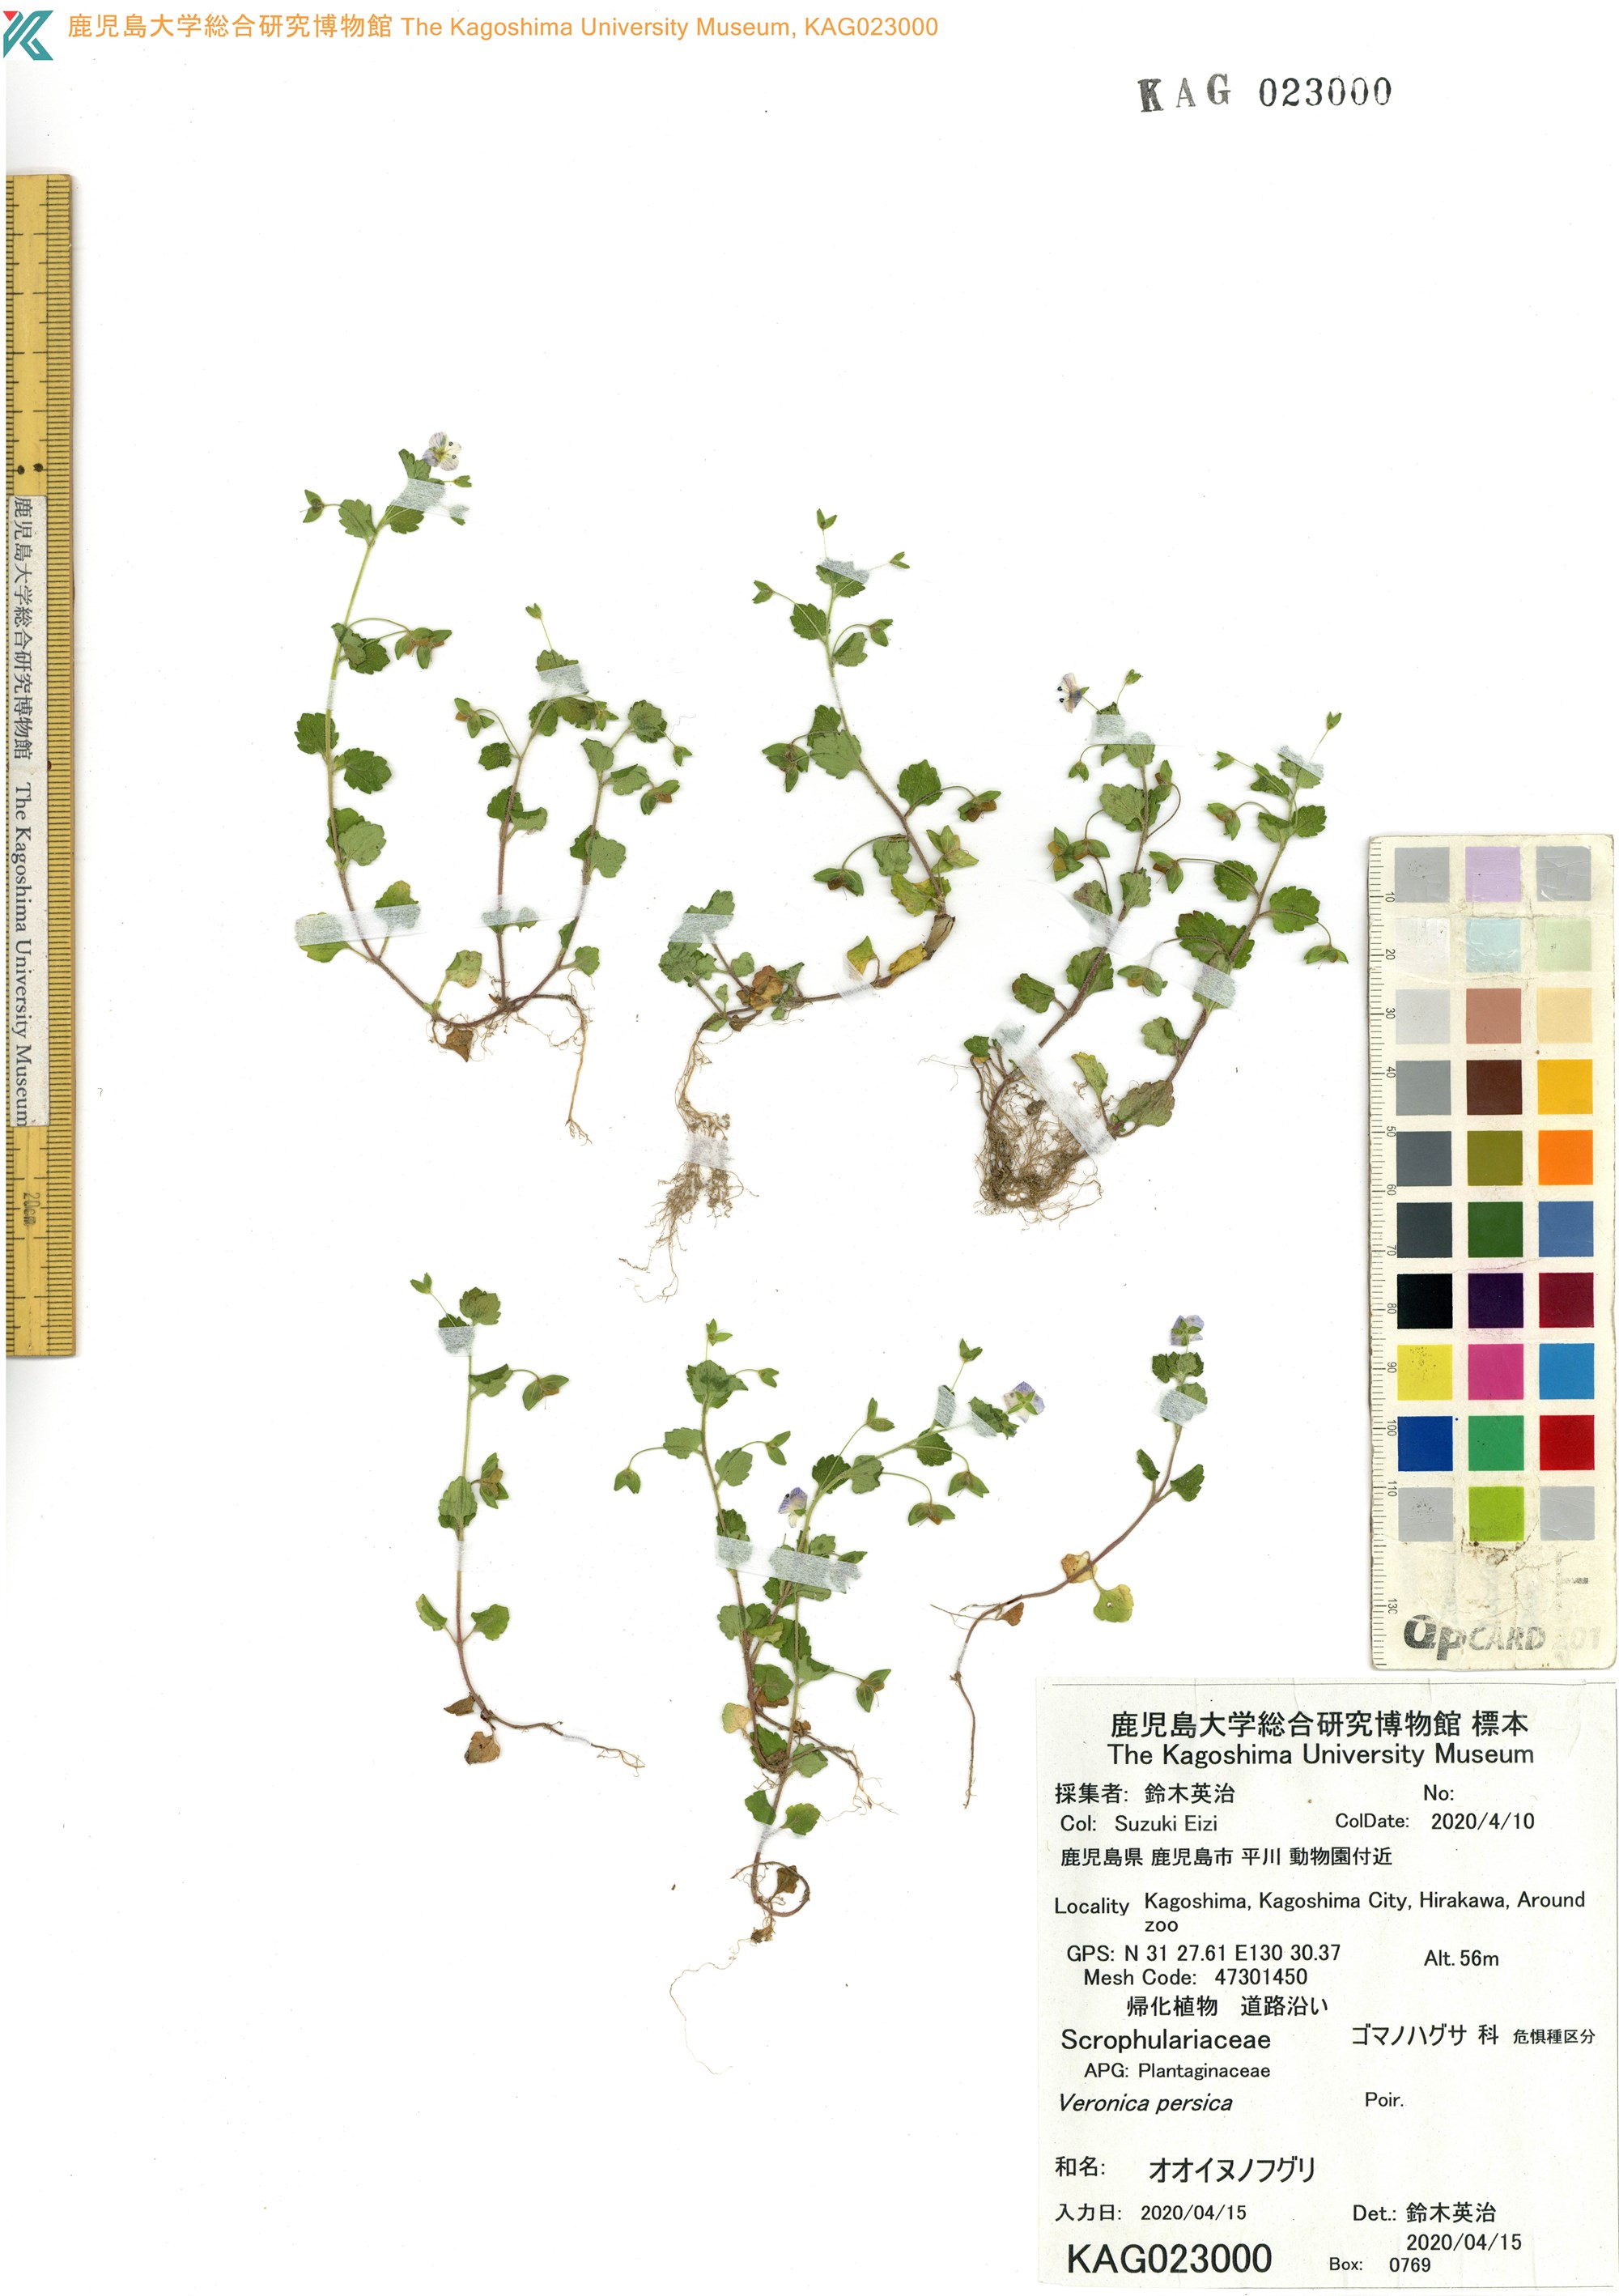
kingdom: Plantae
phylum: Tracheophyta
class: Magnoliopsida
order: Lamiales
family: Plantaginaceae
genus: Veronica
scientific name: Veronica persica
